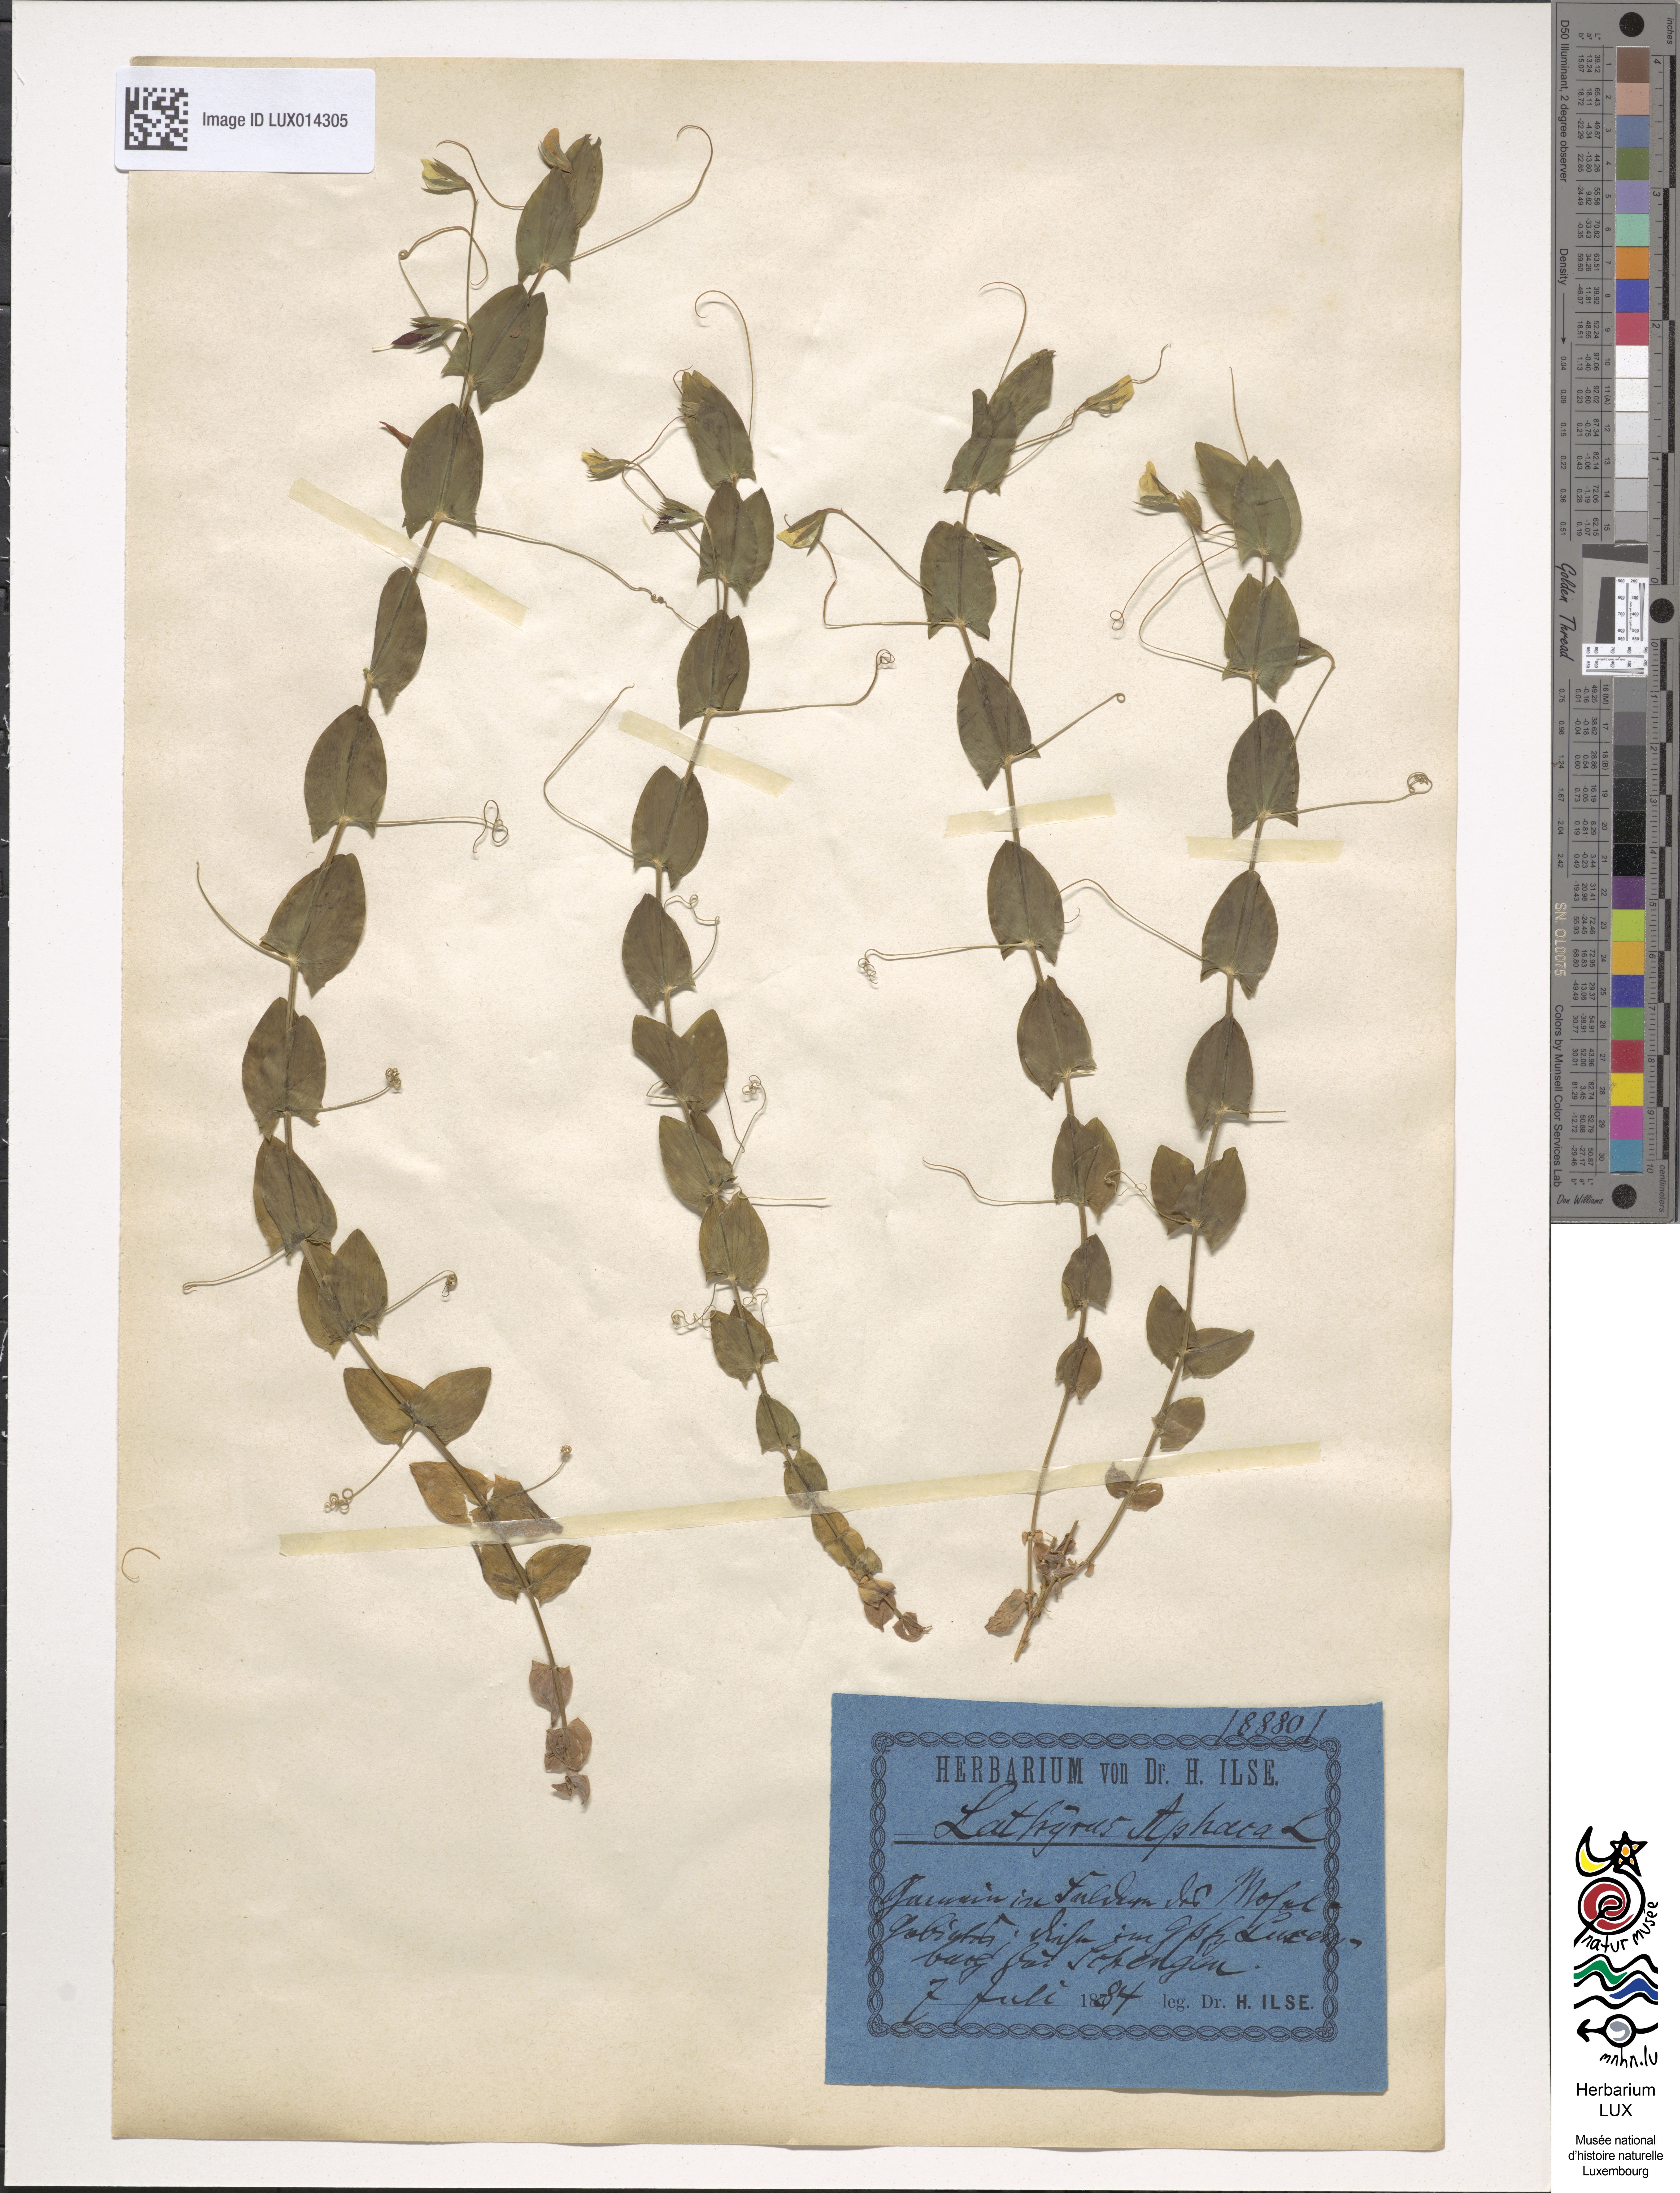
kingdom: Plantae
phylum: Tracheophyta
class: Magnoliopsida
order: Fabales
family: Fabaceae
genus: Lathyrus
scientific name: Lathyrus aphaca
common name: Yellow vetchling
